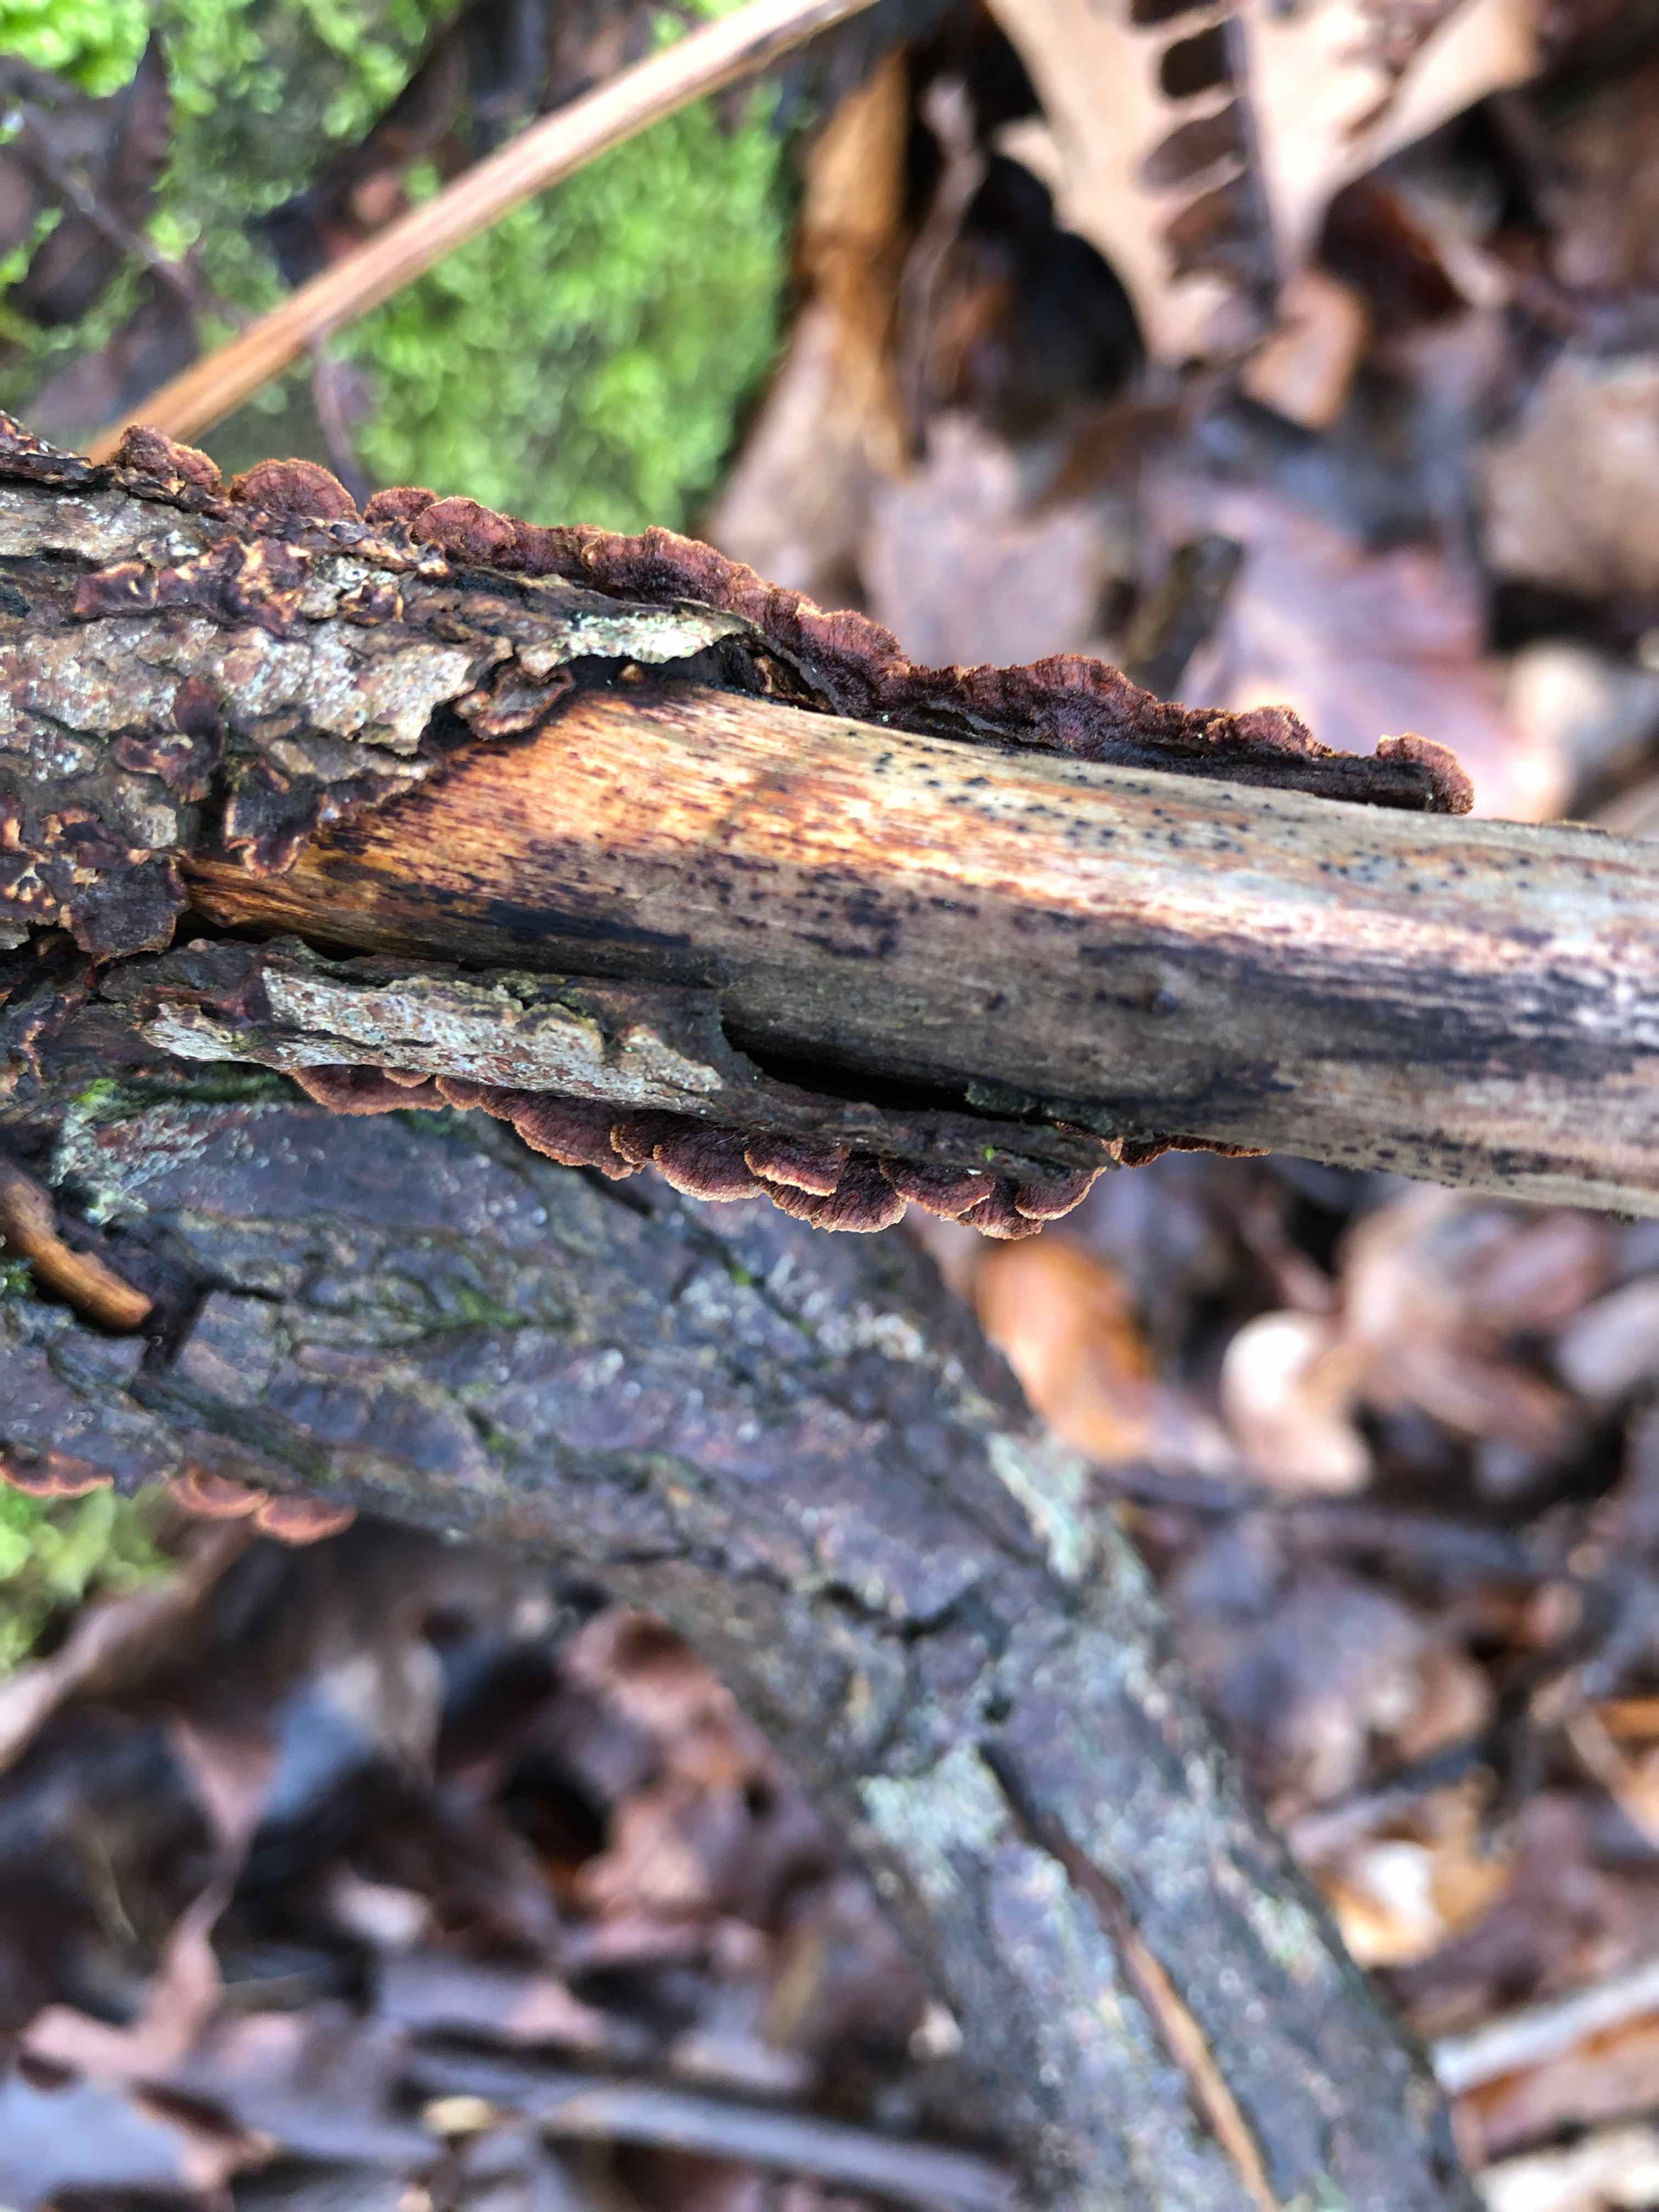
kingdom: Fungi
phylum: Basidiomycota
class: Agaricomycetes
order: Hymenochaetales
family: Hymenochaetaceae
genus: Hydnoporia
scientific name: Hydnoporia tabacina
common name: tobaksbrun ruslædersvamp
